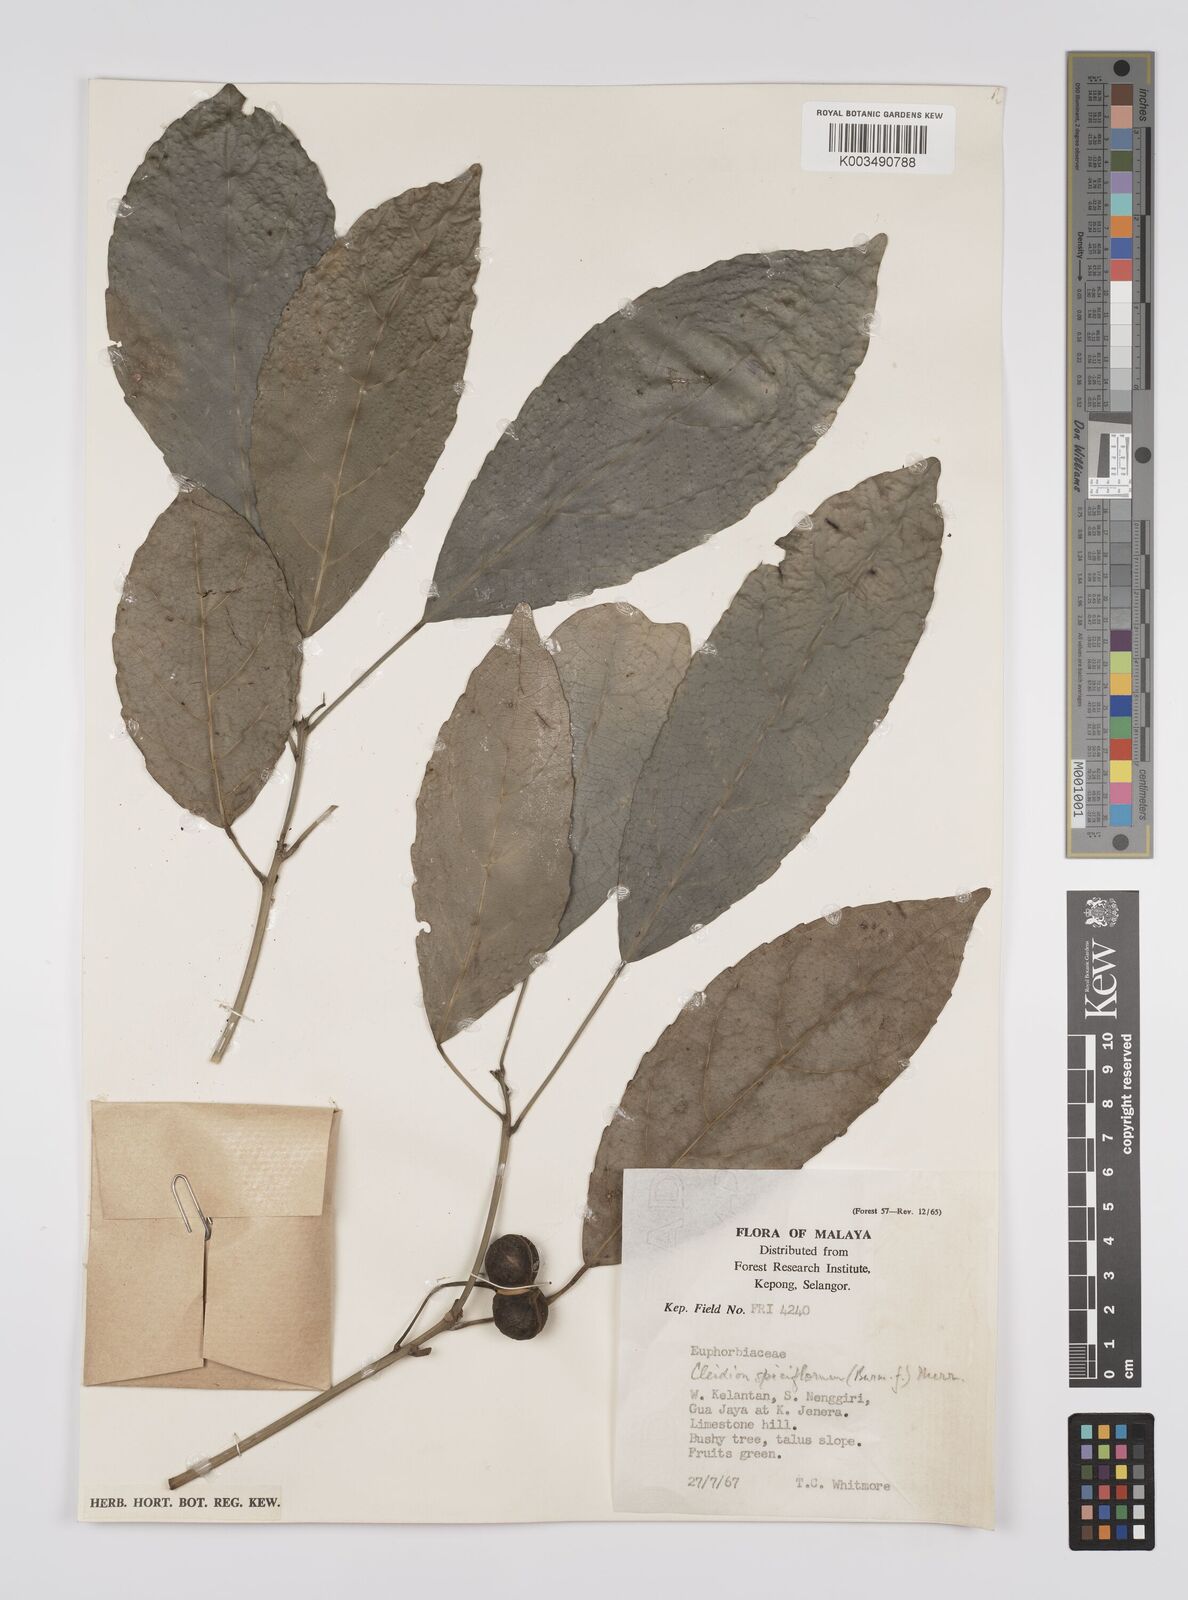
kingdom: Plantae
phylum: Tracheophyta
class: Magnoliopsida
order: Malpighiales
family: Euphorbiaceae
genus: Cleidion
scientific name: Cleidion javanicum
